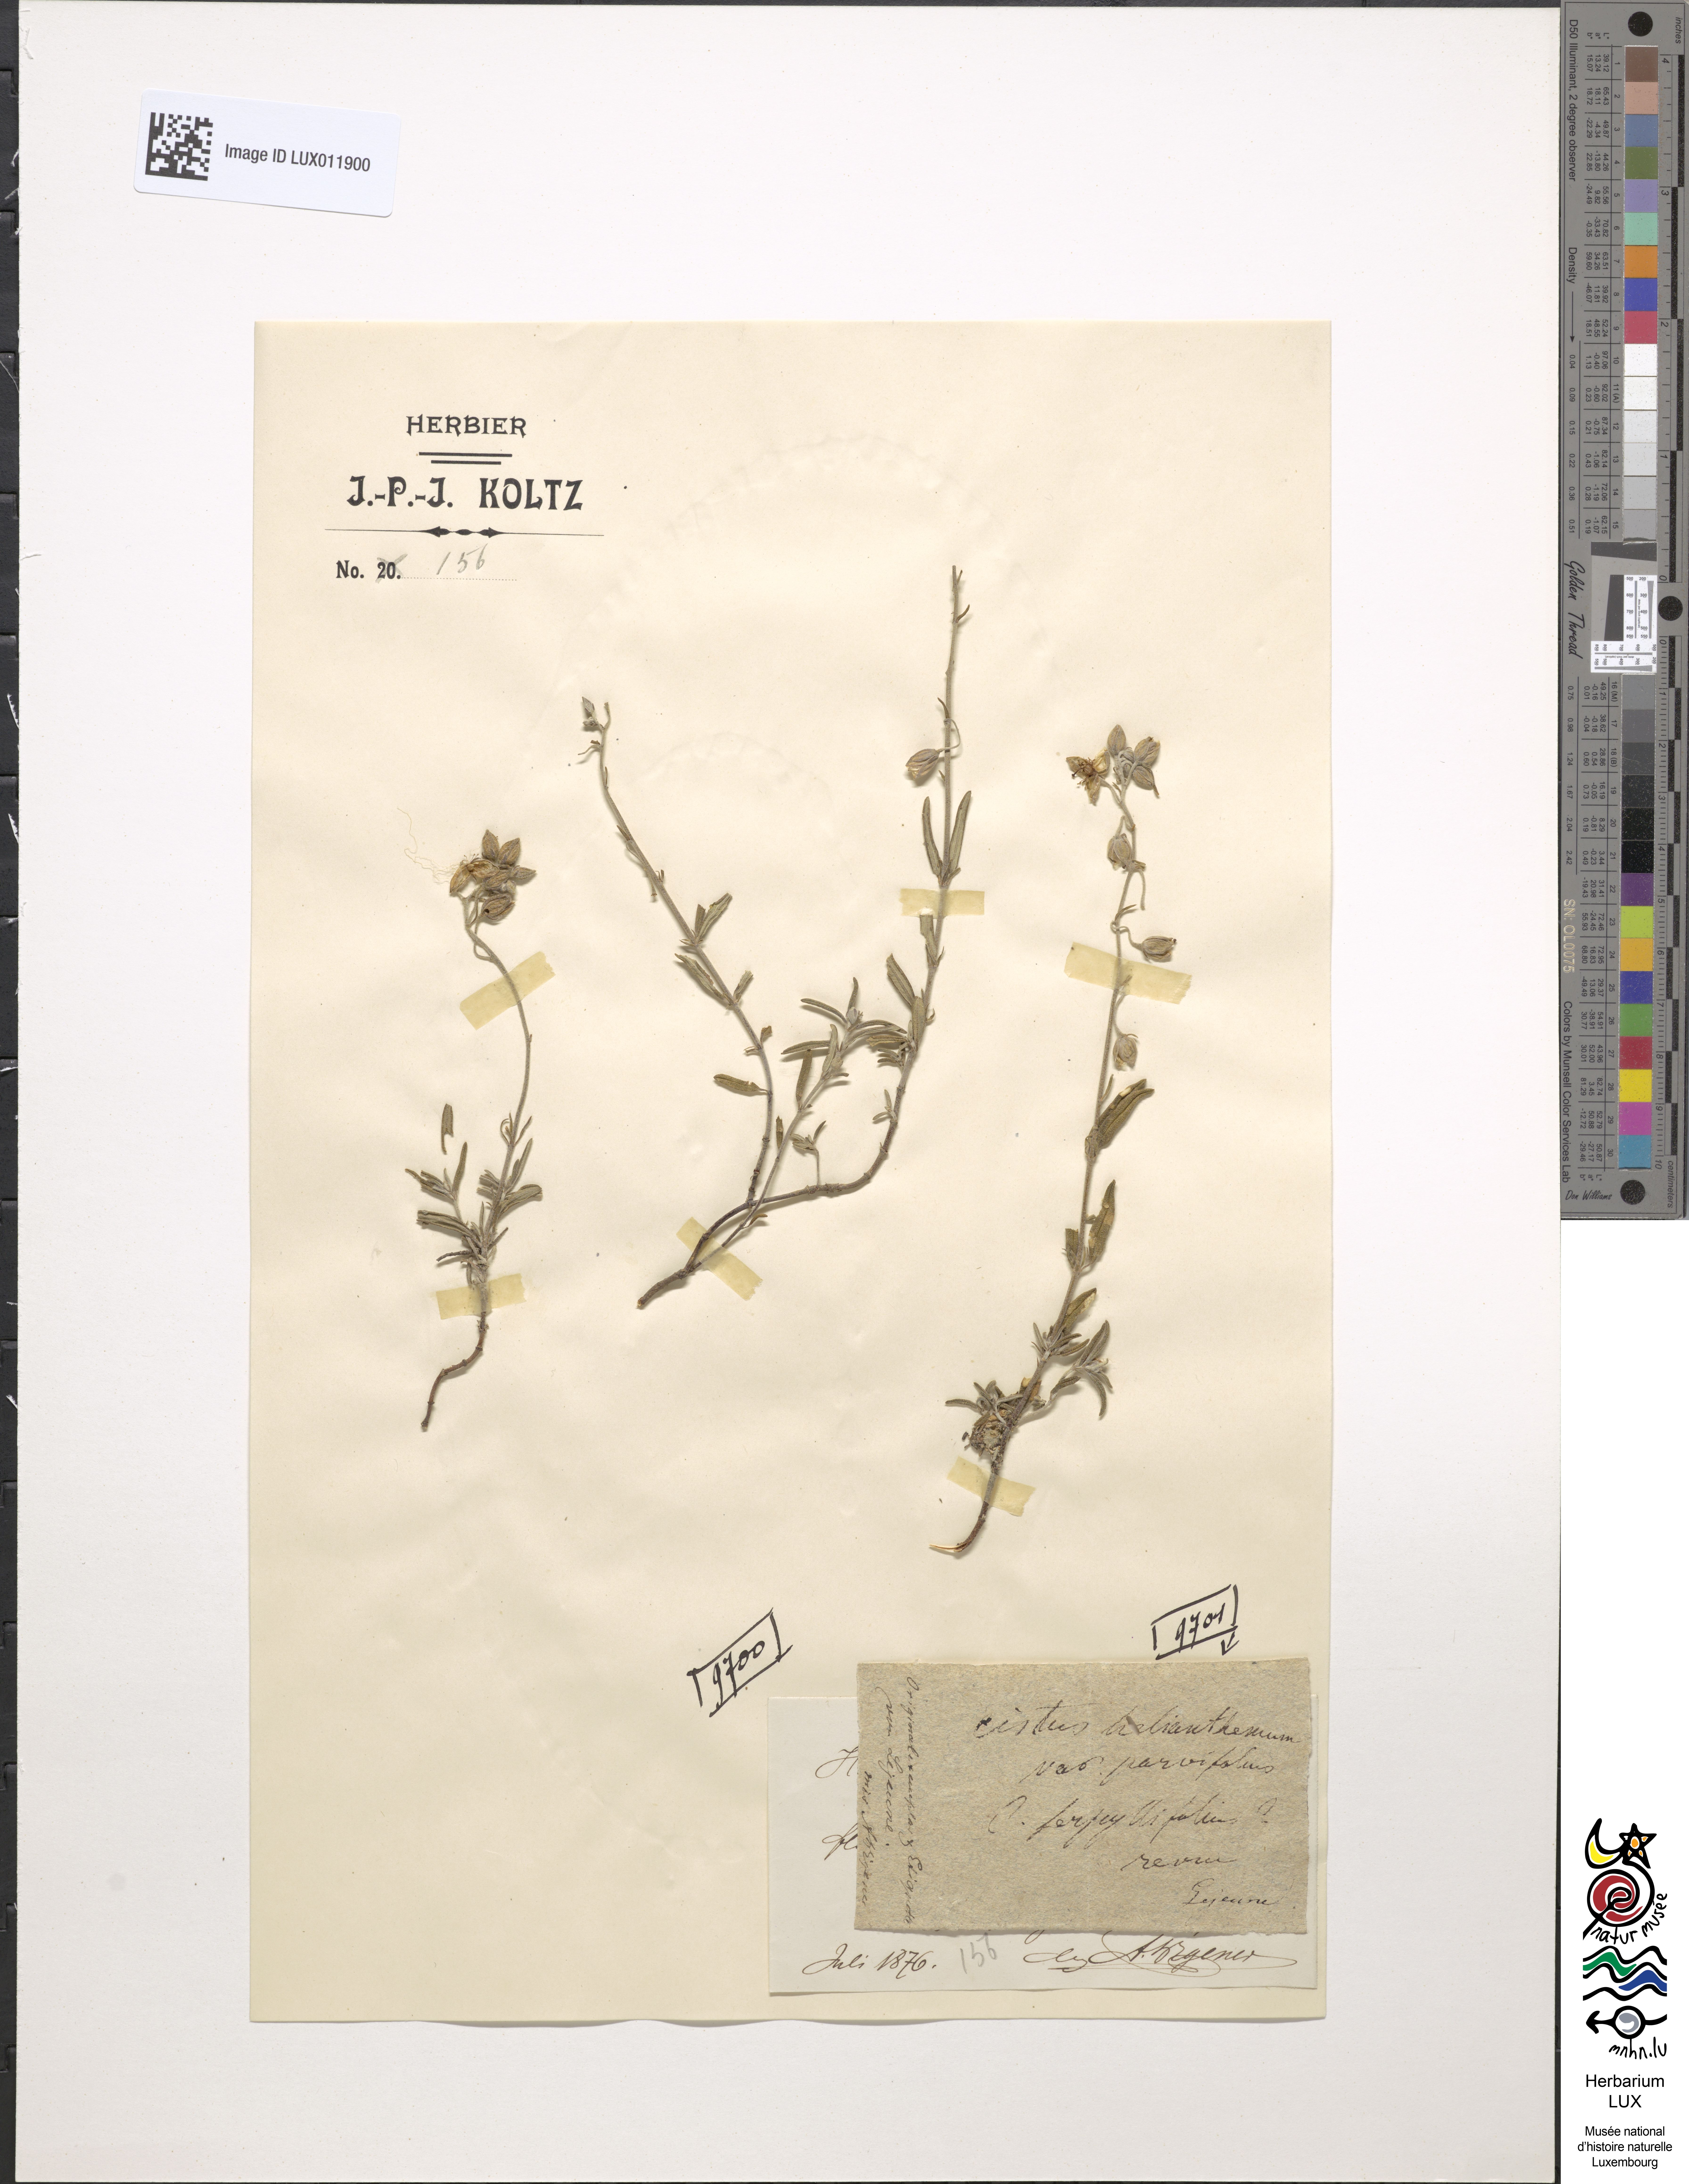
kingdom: Plantae
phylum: Tracheophyta
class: Magnoliopsida
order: Malvales
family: Cistaceae
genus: Helianthemum
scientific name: Helianthemum apenninum
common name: White rock-rose
